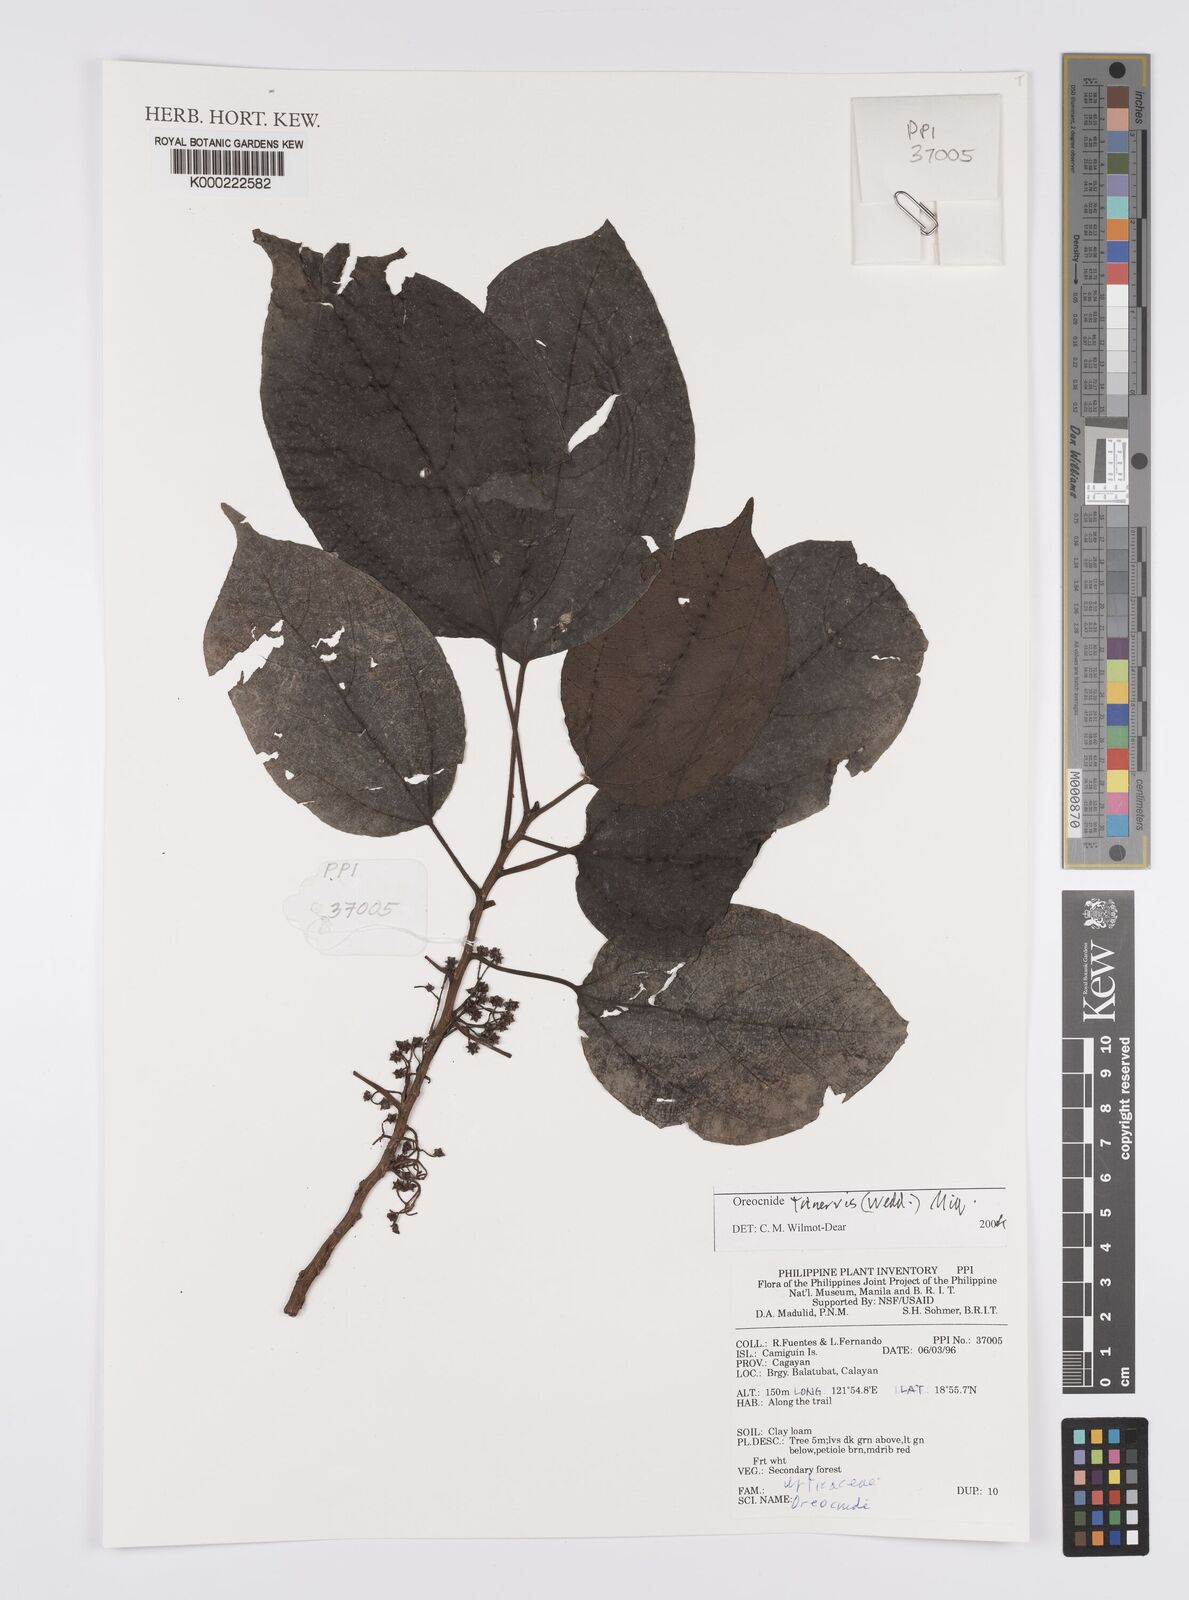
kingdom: Plantae
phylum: Tracheophyta
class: Magnoliopsida
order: Rosales
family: Urticaceae
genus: Oreocnide
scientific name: Oreocnide trinervis
